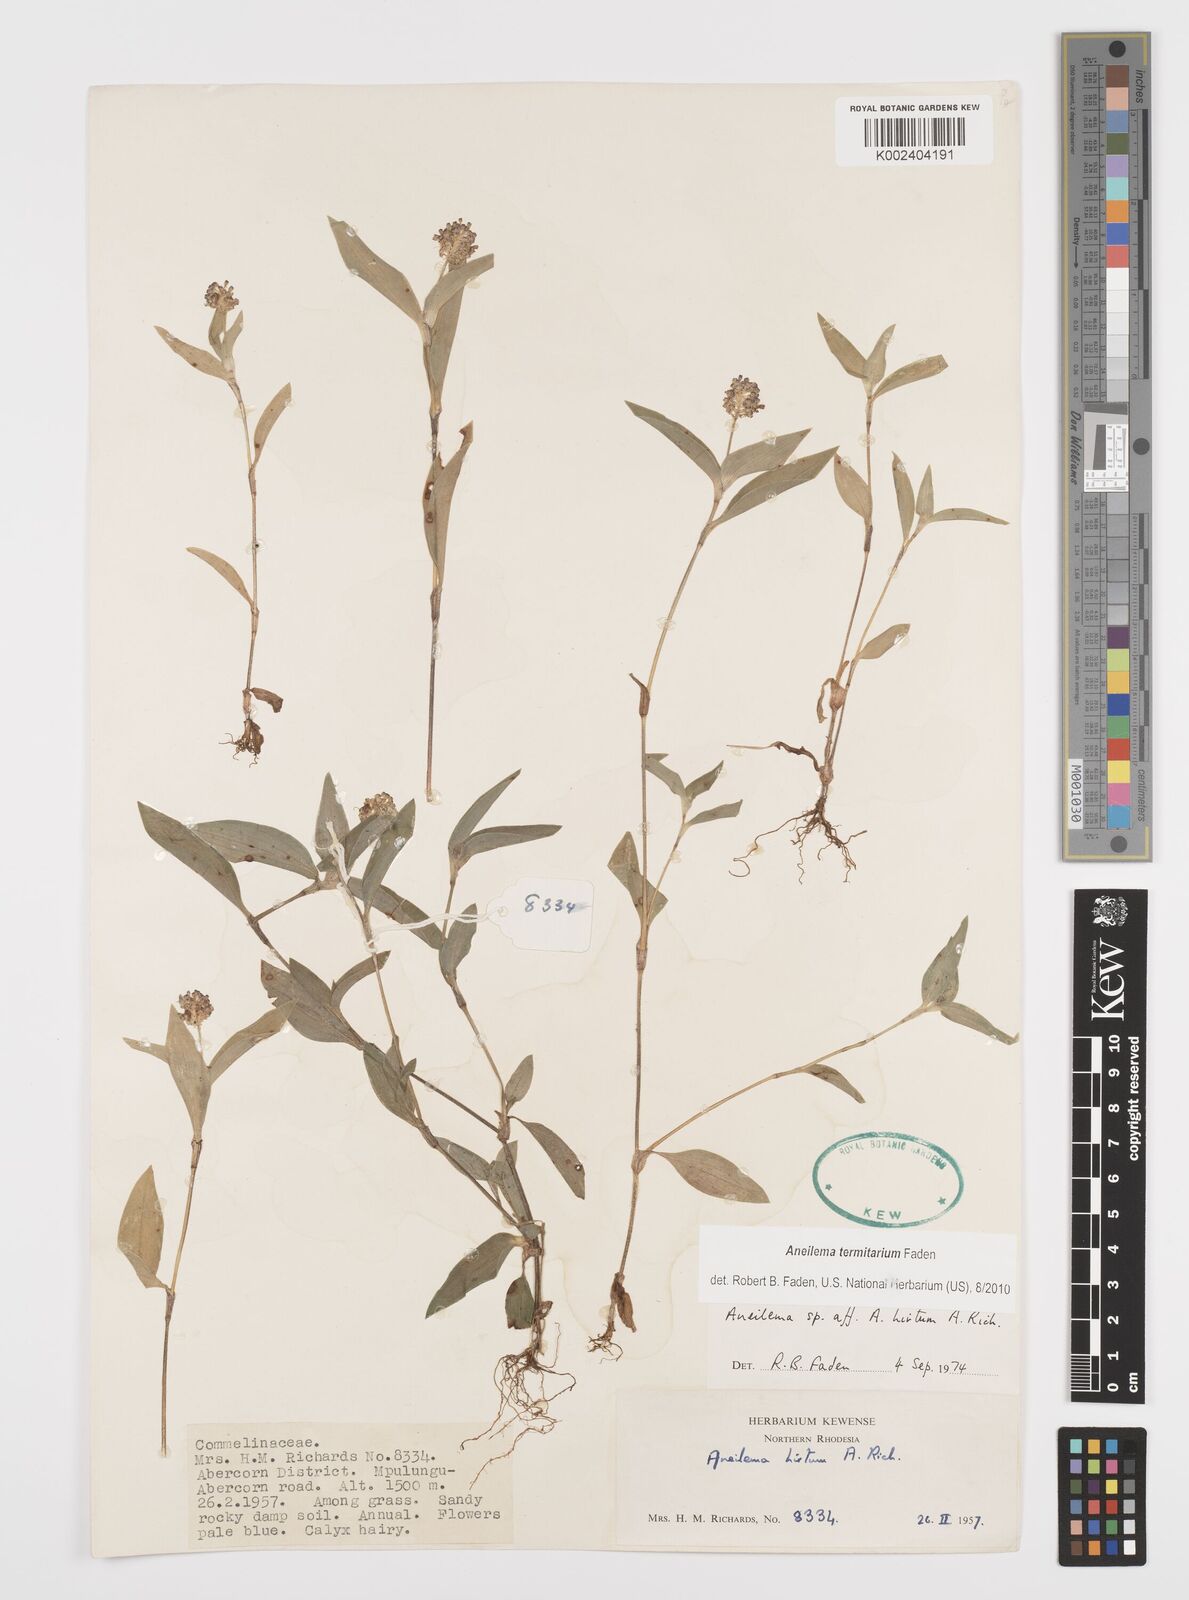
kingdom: Plantae
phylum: Tracheophyta
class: Liliopsida
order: Commelinales
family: Commelinaceae
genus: Aneilema
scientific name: Aneilema termitarium
